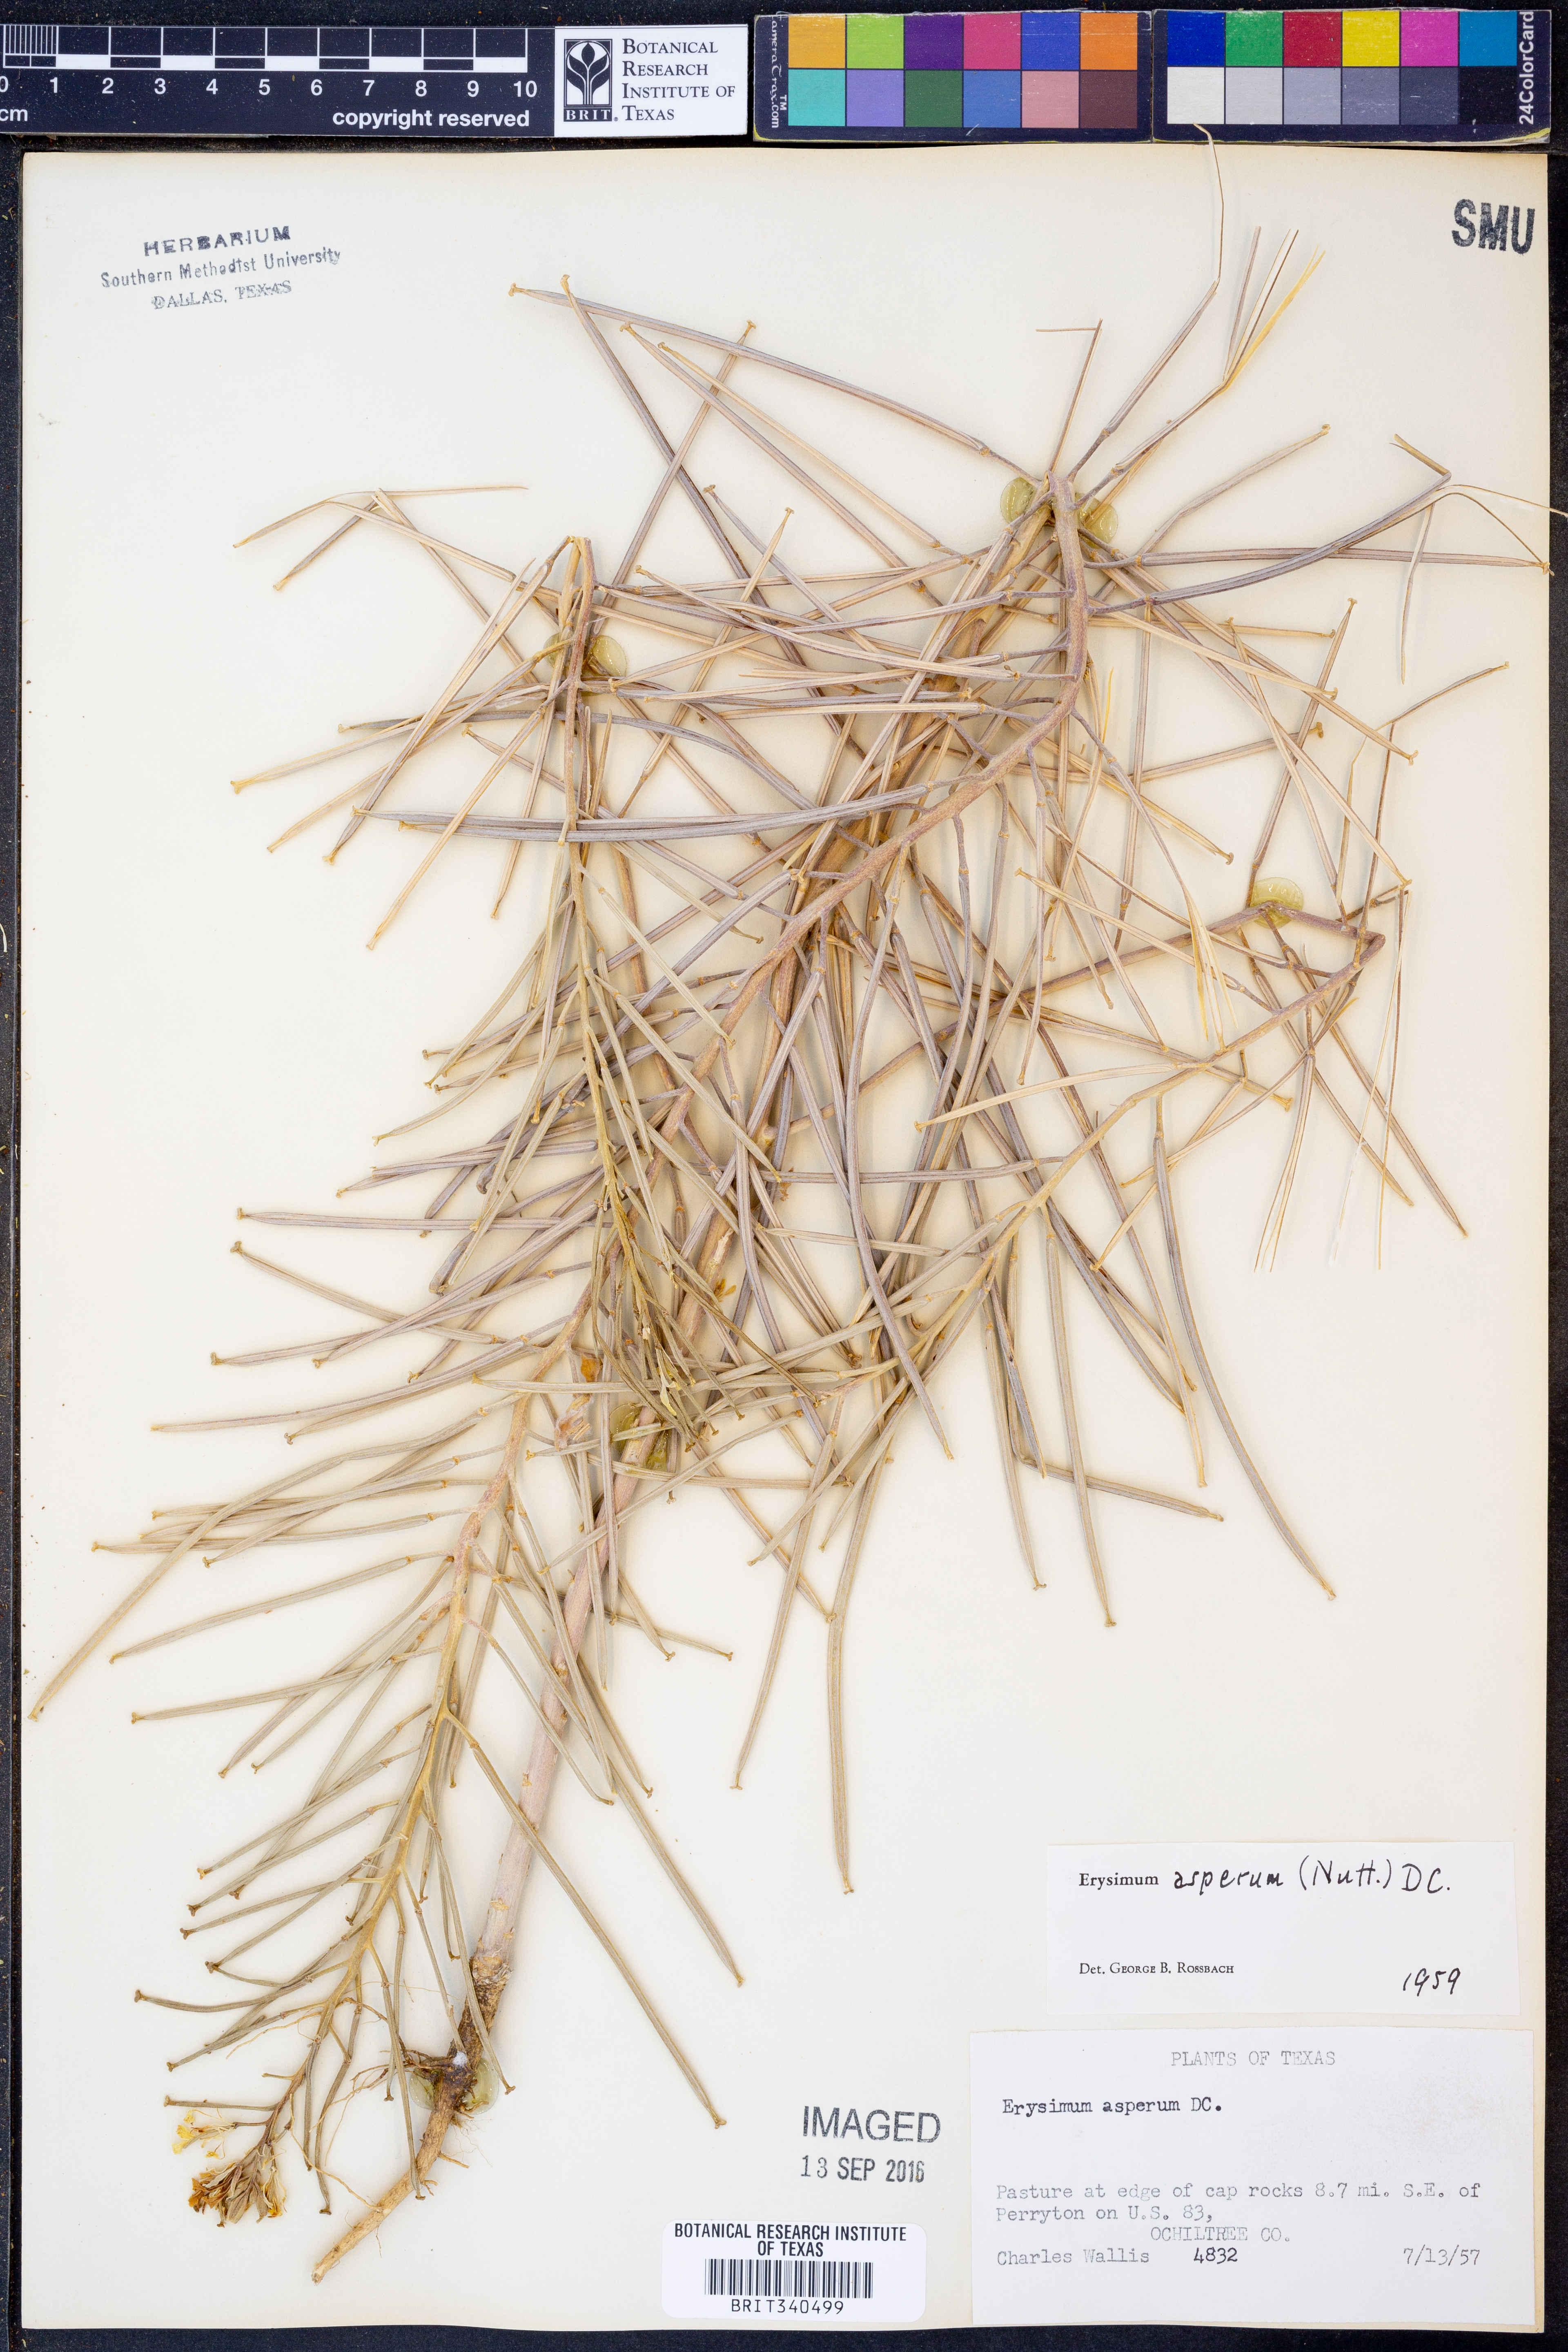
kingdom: Plantae
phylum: Tracheophyta
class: Magnoliopsida
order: Brassicales
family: Brassicaceae
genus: Erysimum
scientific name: Erysimum asperum
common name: Western wallflower
